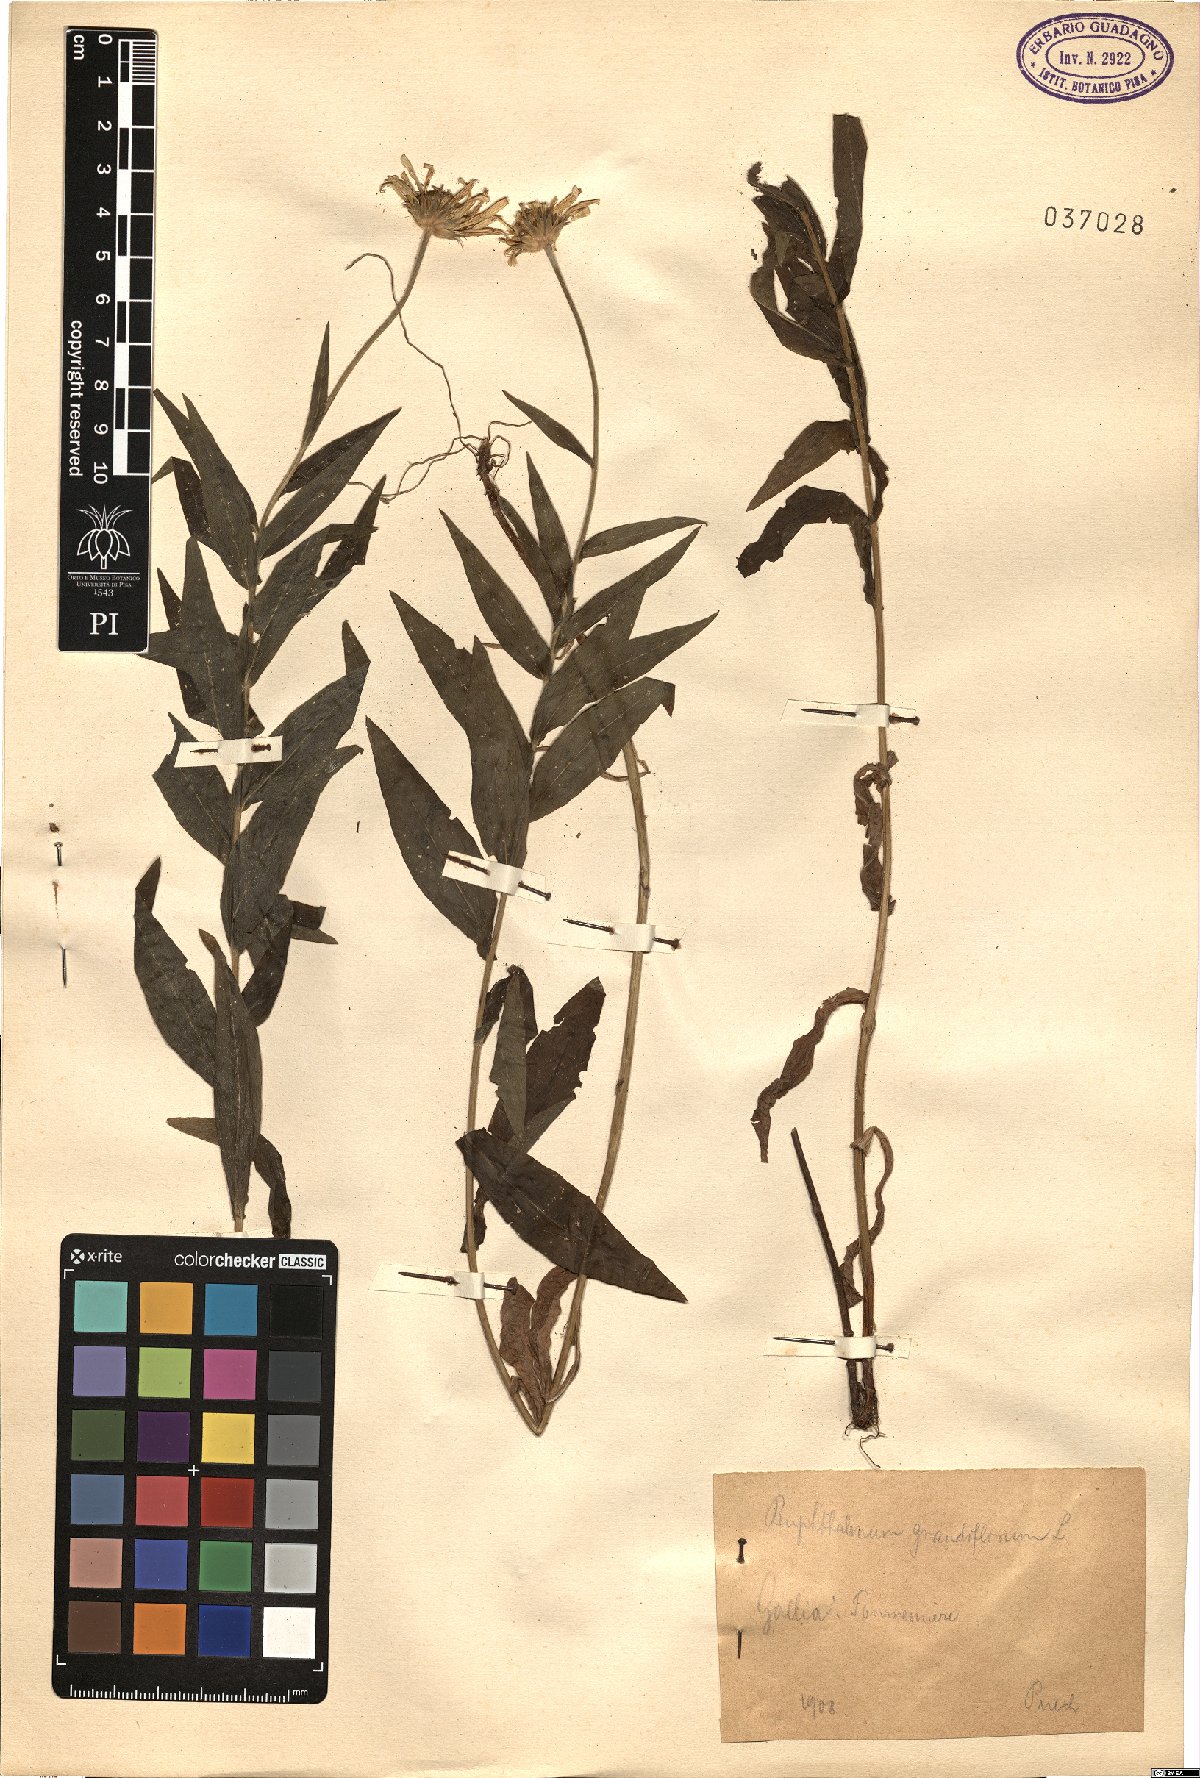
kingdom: Plantae
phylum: Tracheophyta
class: Magnoliopsida
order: Asterales
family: Asteraceae
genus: Buphthalmum
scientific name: Buphthalmum salicifolium
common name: Willow-leaved yellow-oxeye
